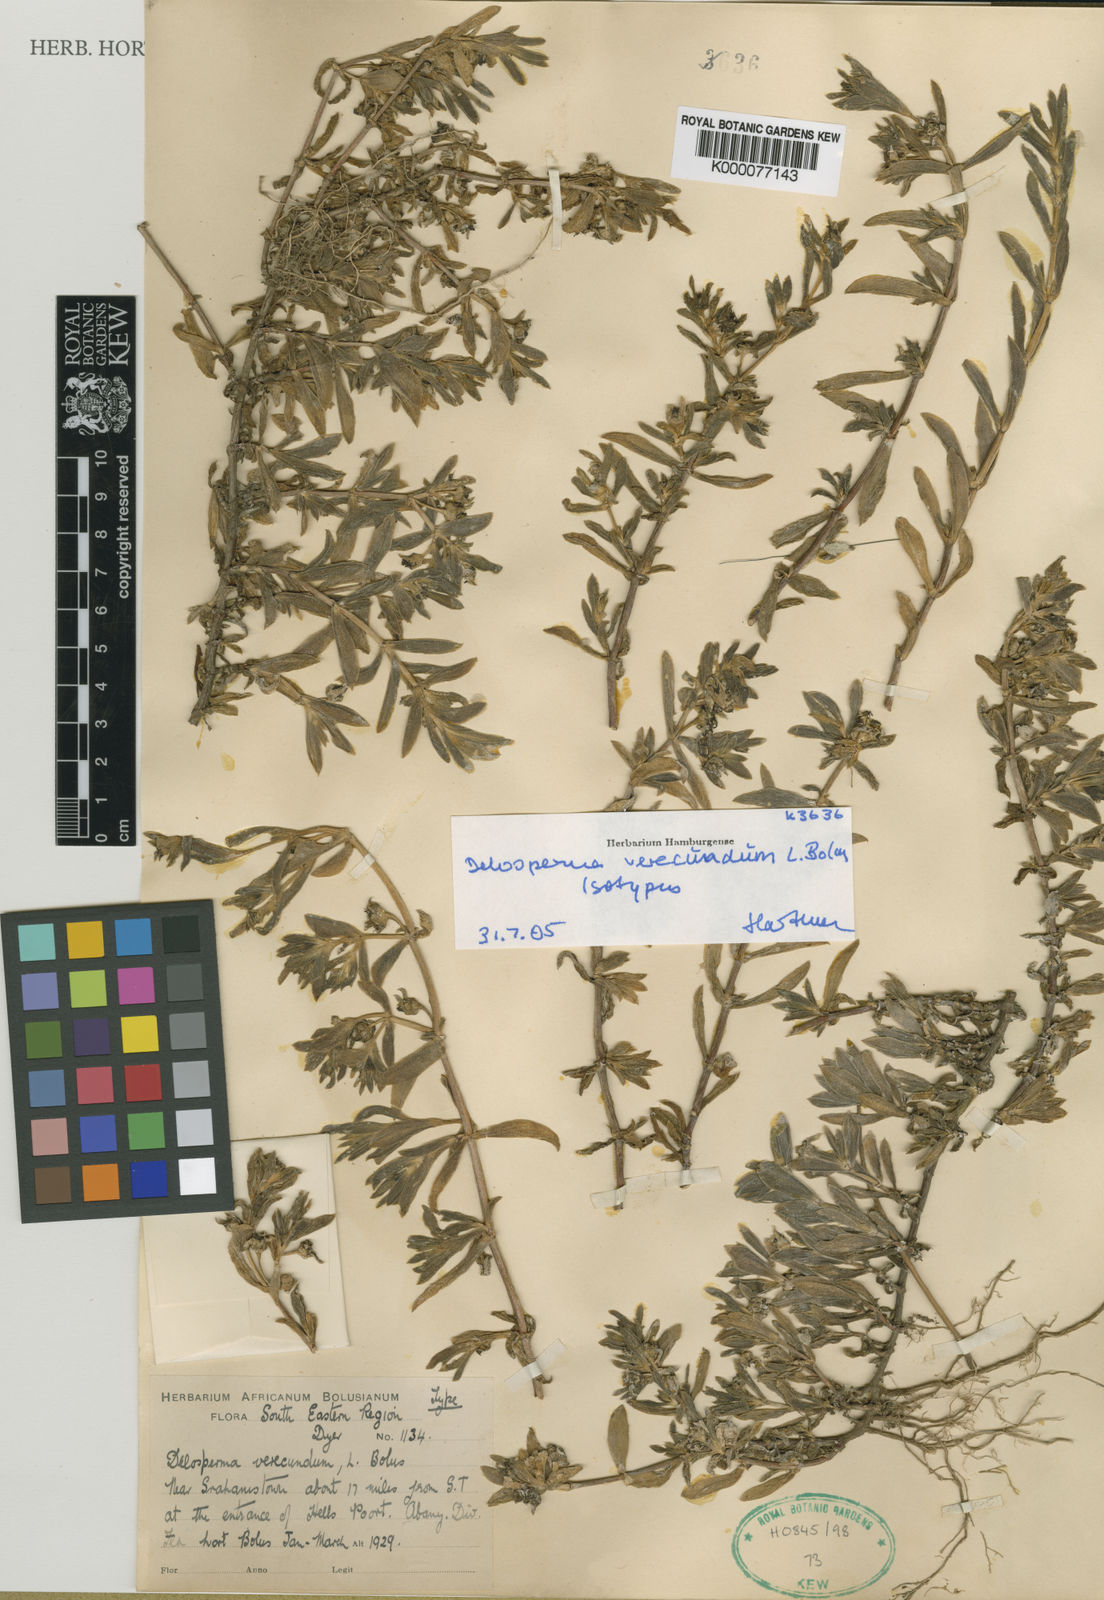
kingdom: Plantae
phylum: Tracheophyta
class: Magnoliopsida
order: Caryophyllales
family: Aizoaceae
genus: Delosperma
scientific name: Delosperma verecundum
